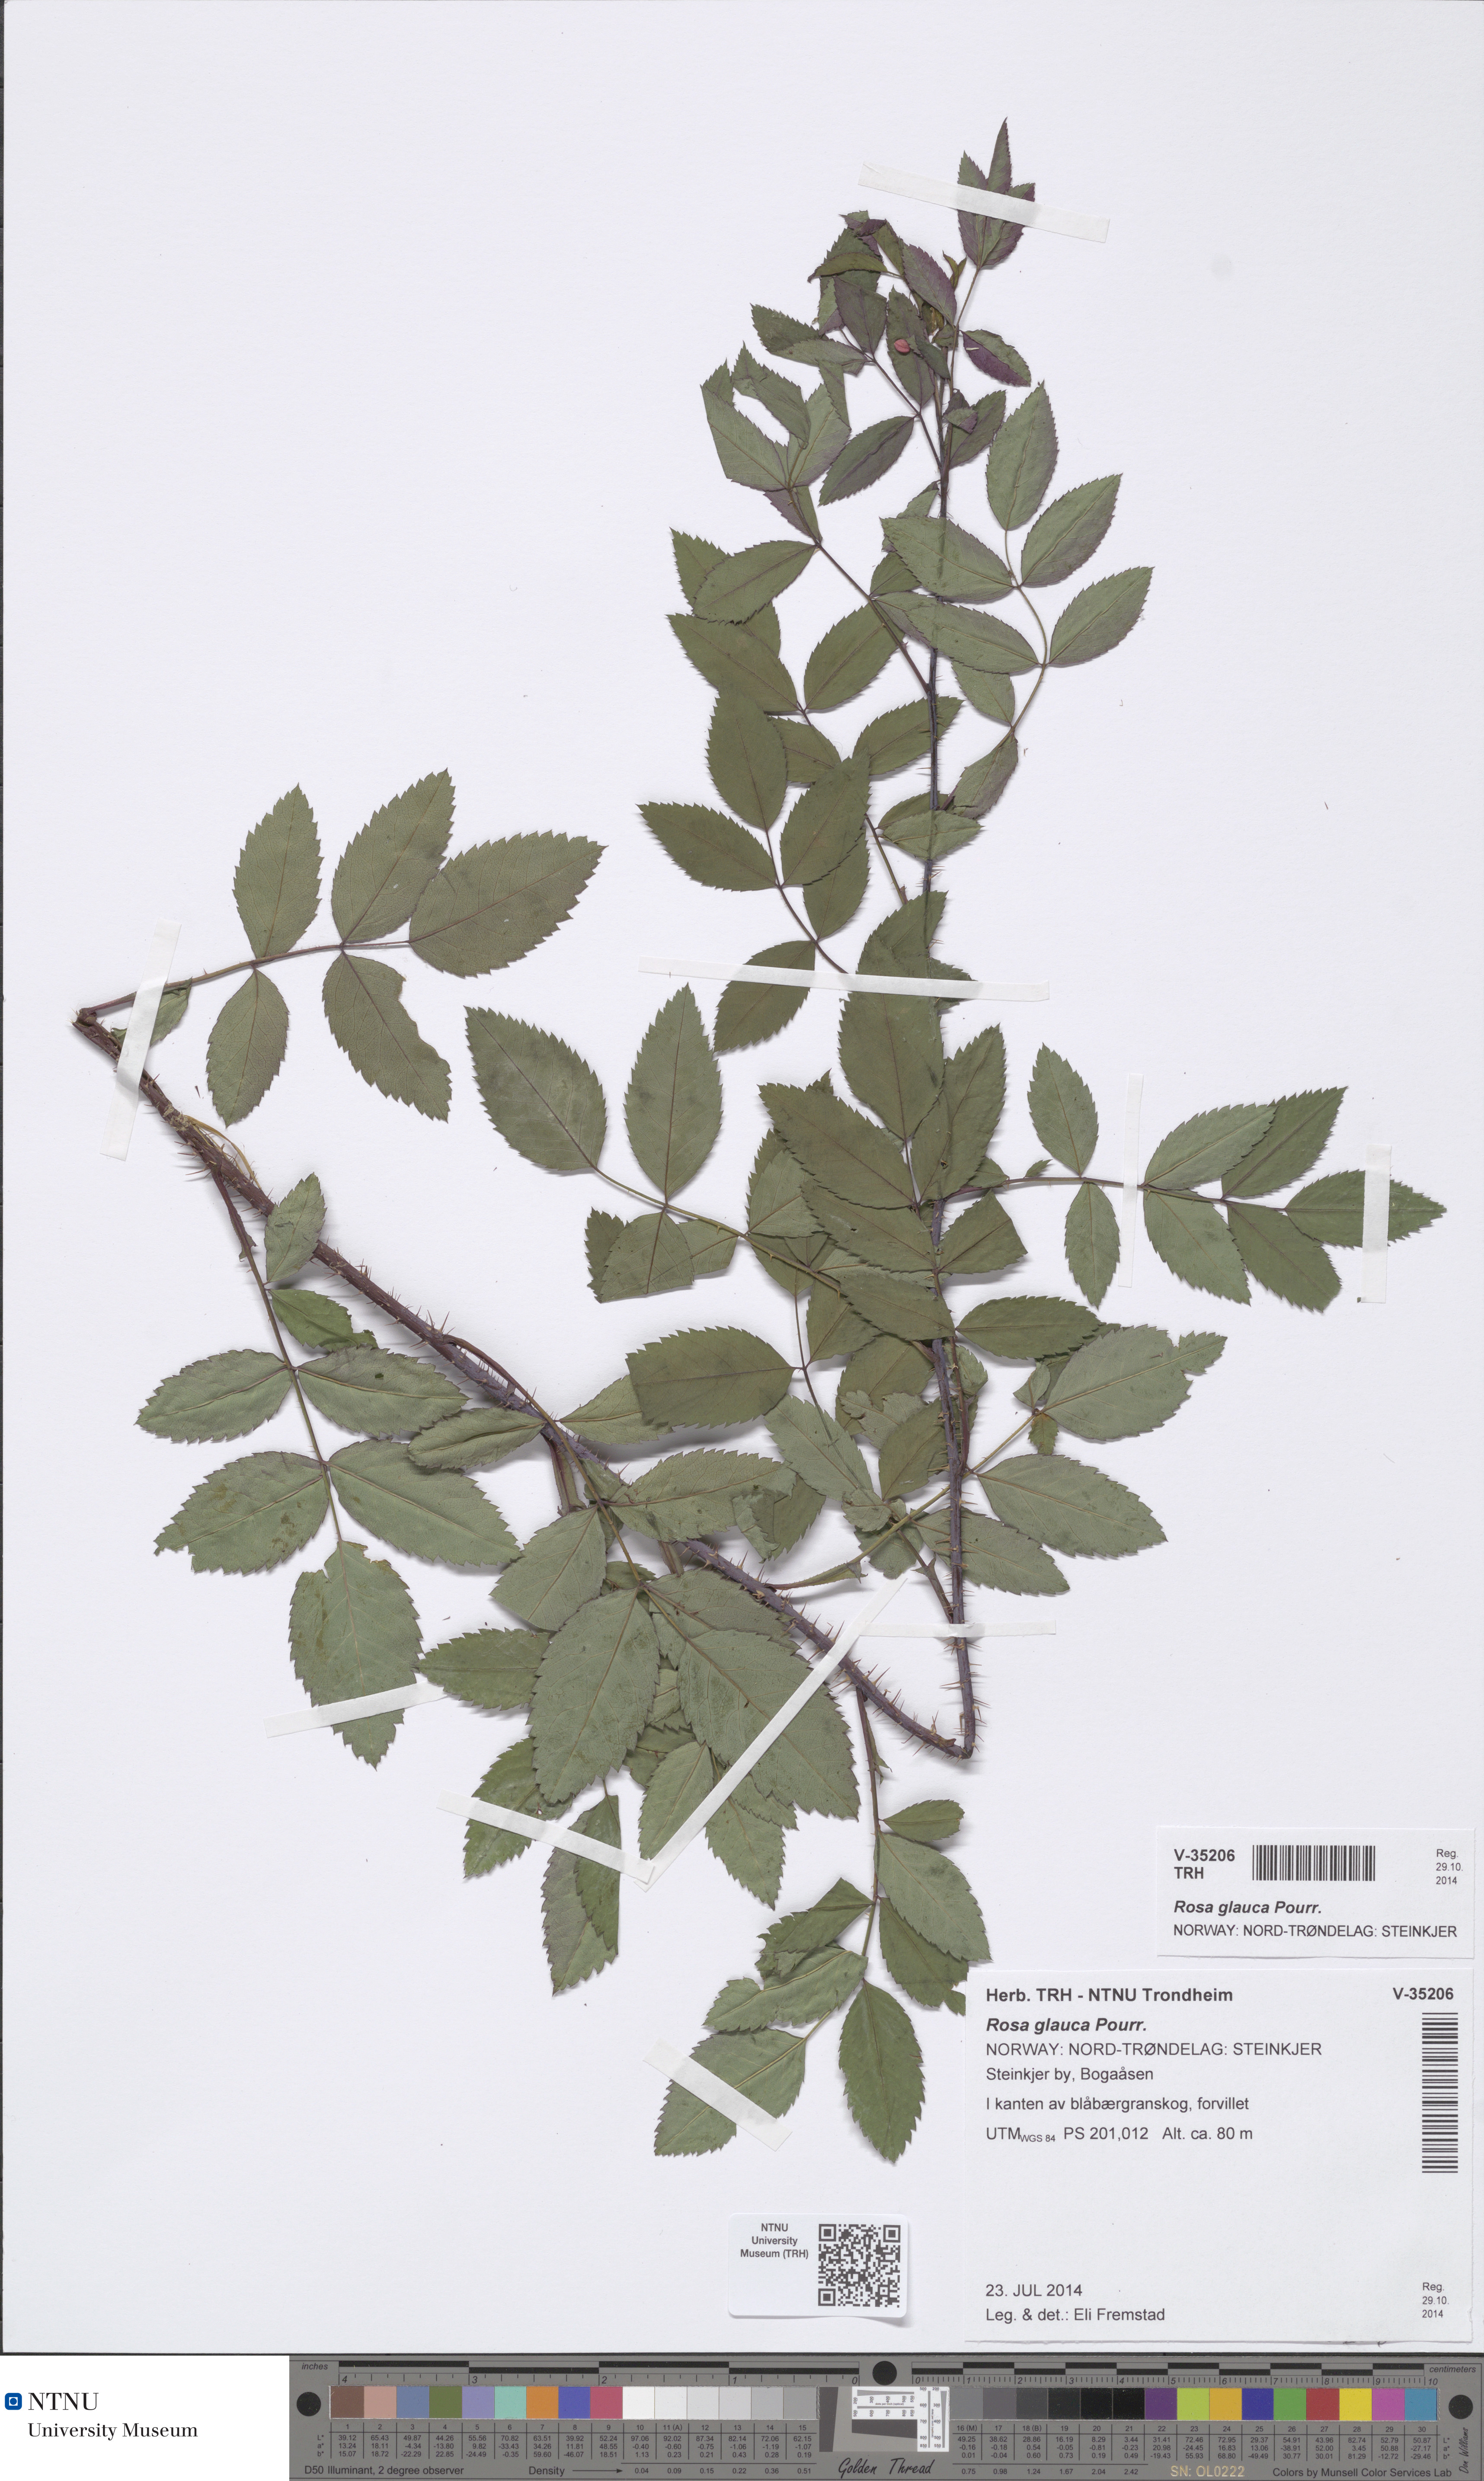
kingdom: Plantae
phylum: Tracheophyta
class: Magnoliopsida
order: Rosales
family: Rosaceae
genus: Rosa
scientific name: Rosa glauca
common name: Redleaf rose
